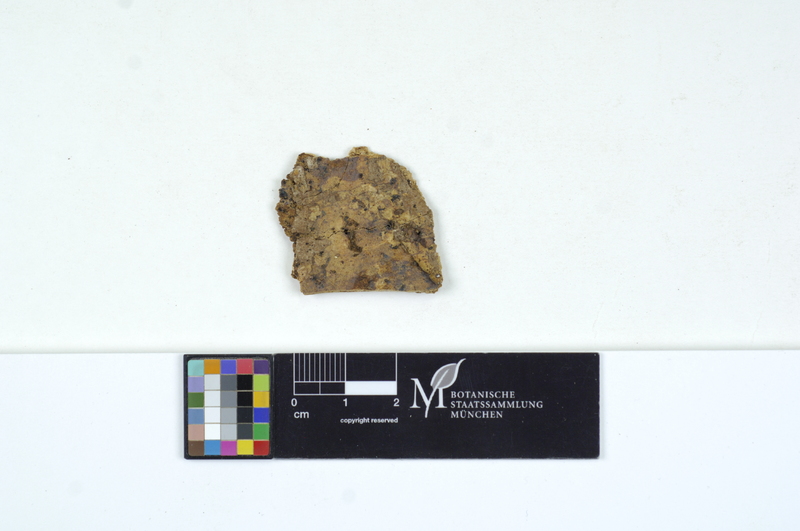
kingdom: Plantae
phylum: Tracheophyta
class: Pinopsida
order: Pinales
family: Pinaceae
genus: Abies
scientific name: Abies alba
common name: Silver fir
